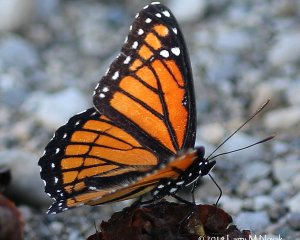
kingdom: Animalia
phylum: Arthropoda
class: Insecta
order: Lepidoptera
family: Nymphalidae
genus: Limenitis
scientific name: Limenitis archippus
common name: Viceroy
